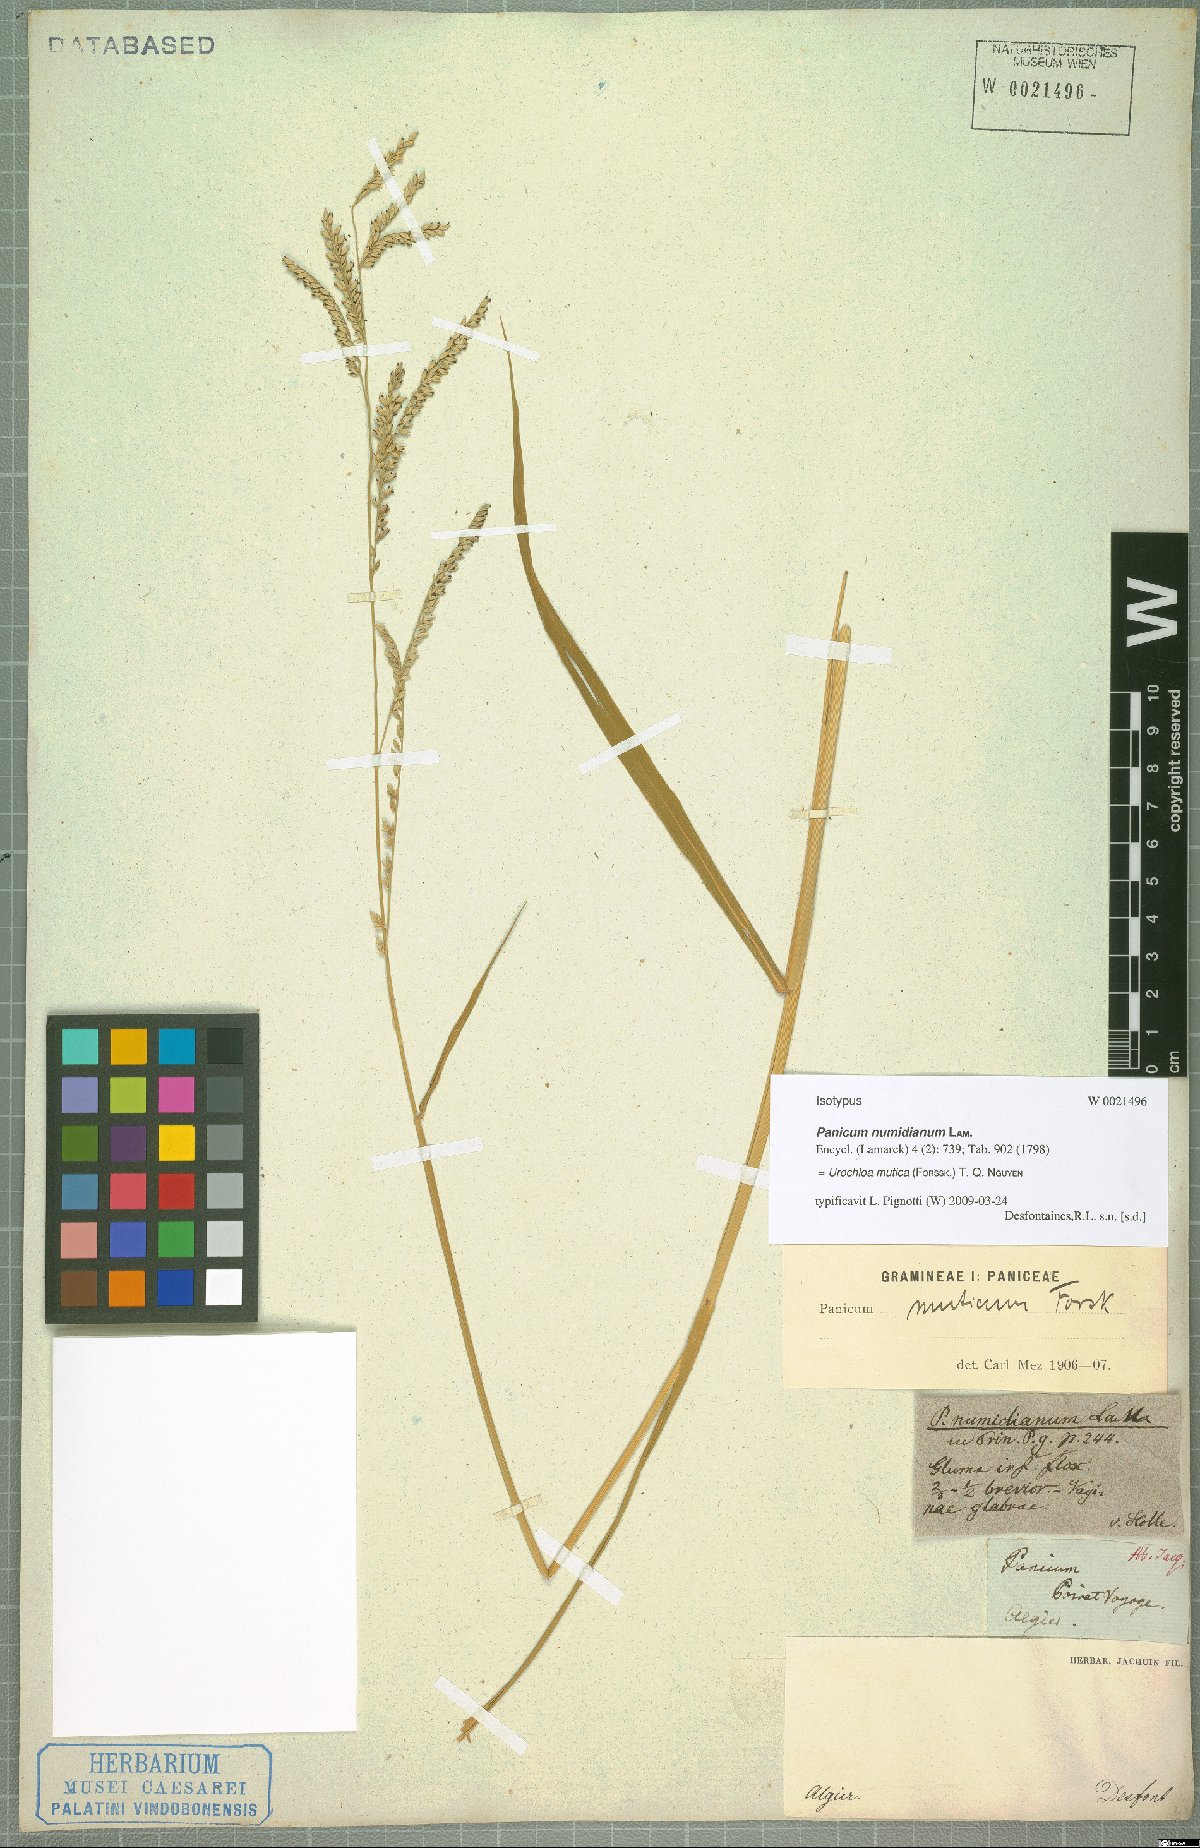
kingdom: Plantae
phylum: Tracheophyta
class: Liliopsida
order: Poales
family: Poaceae
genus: Urochloa
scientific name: Urochloa mutica
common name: Para grass
